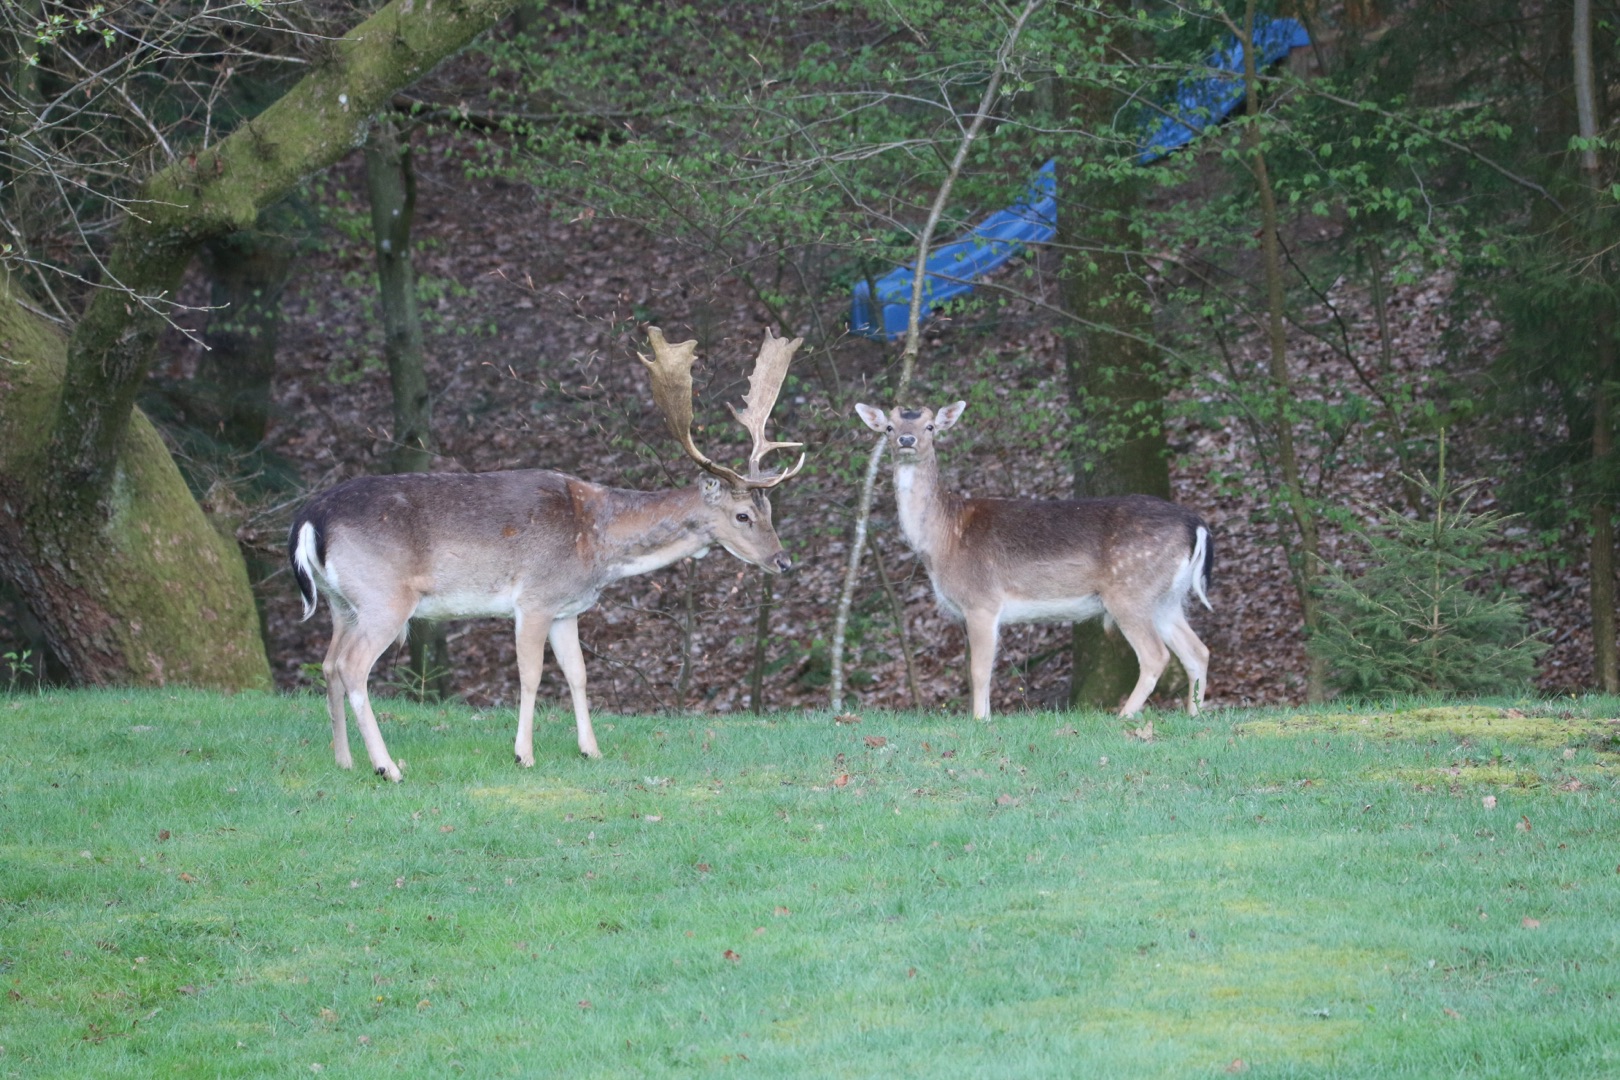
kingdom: Animalia
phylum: Chordata
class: Mammalia
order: Artiodactyla
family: Cervidae
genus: Dama
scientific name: Dama dama
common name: Dådyr
